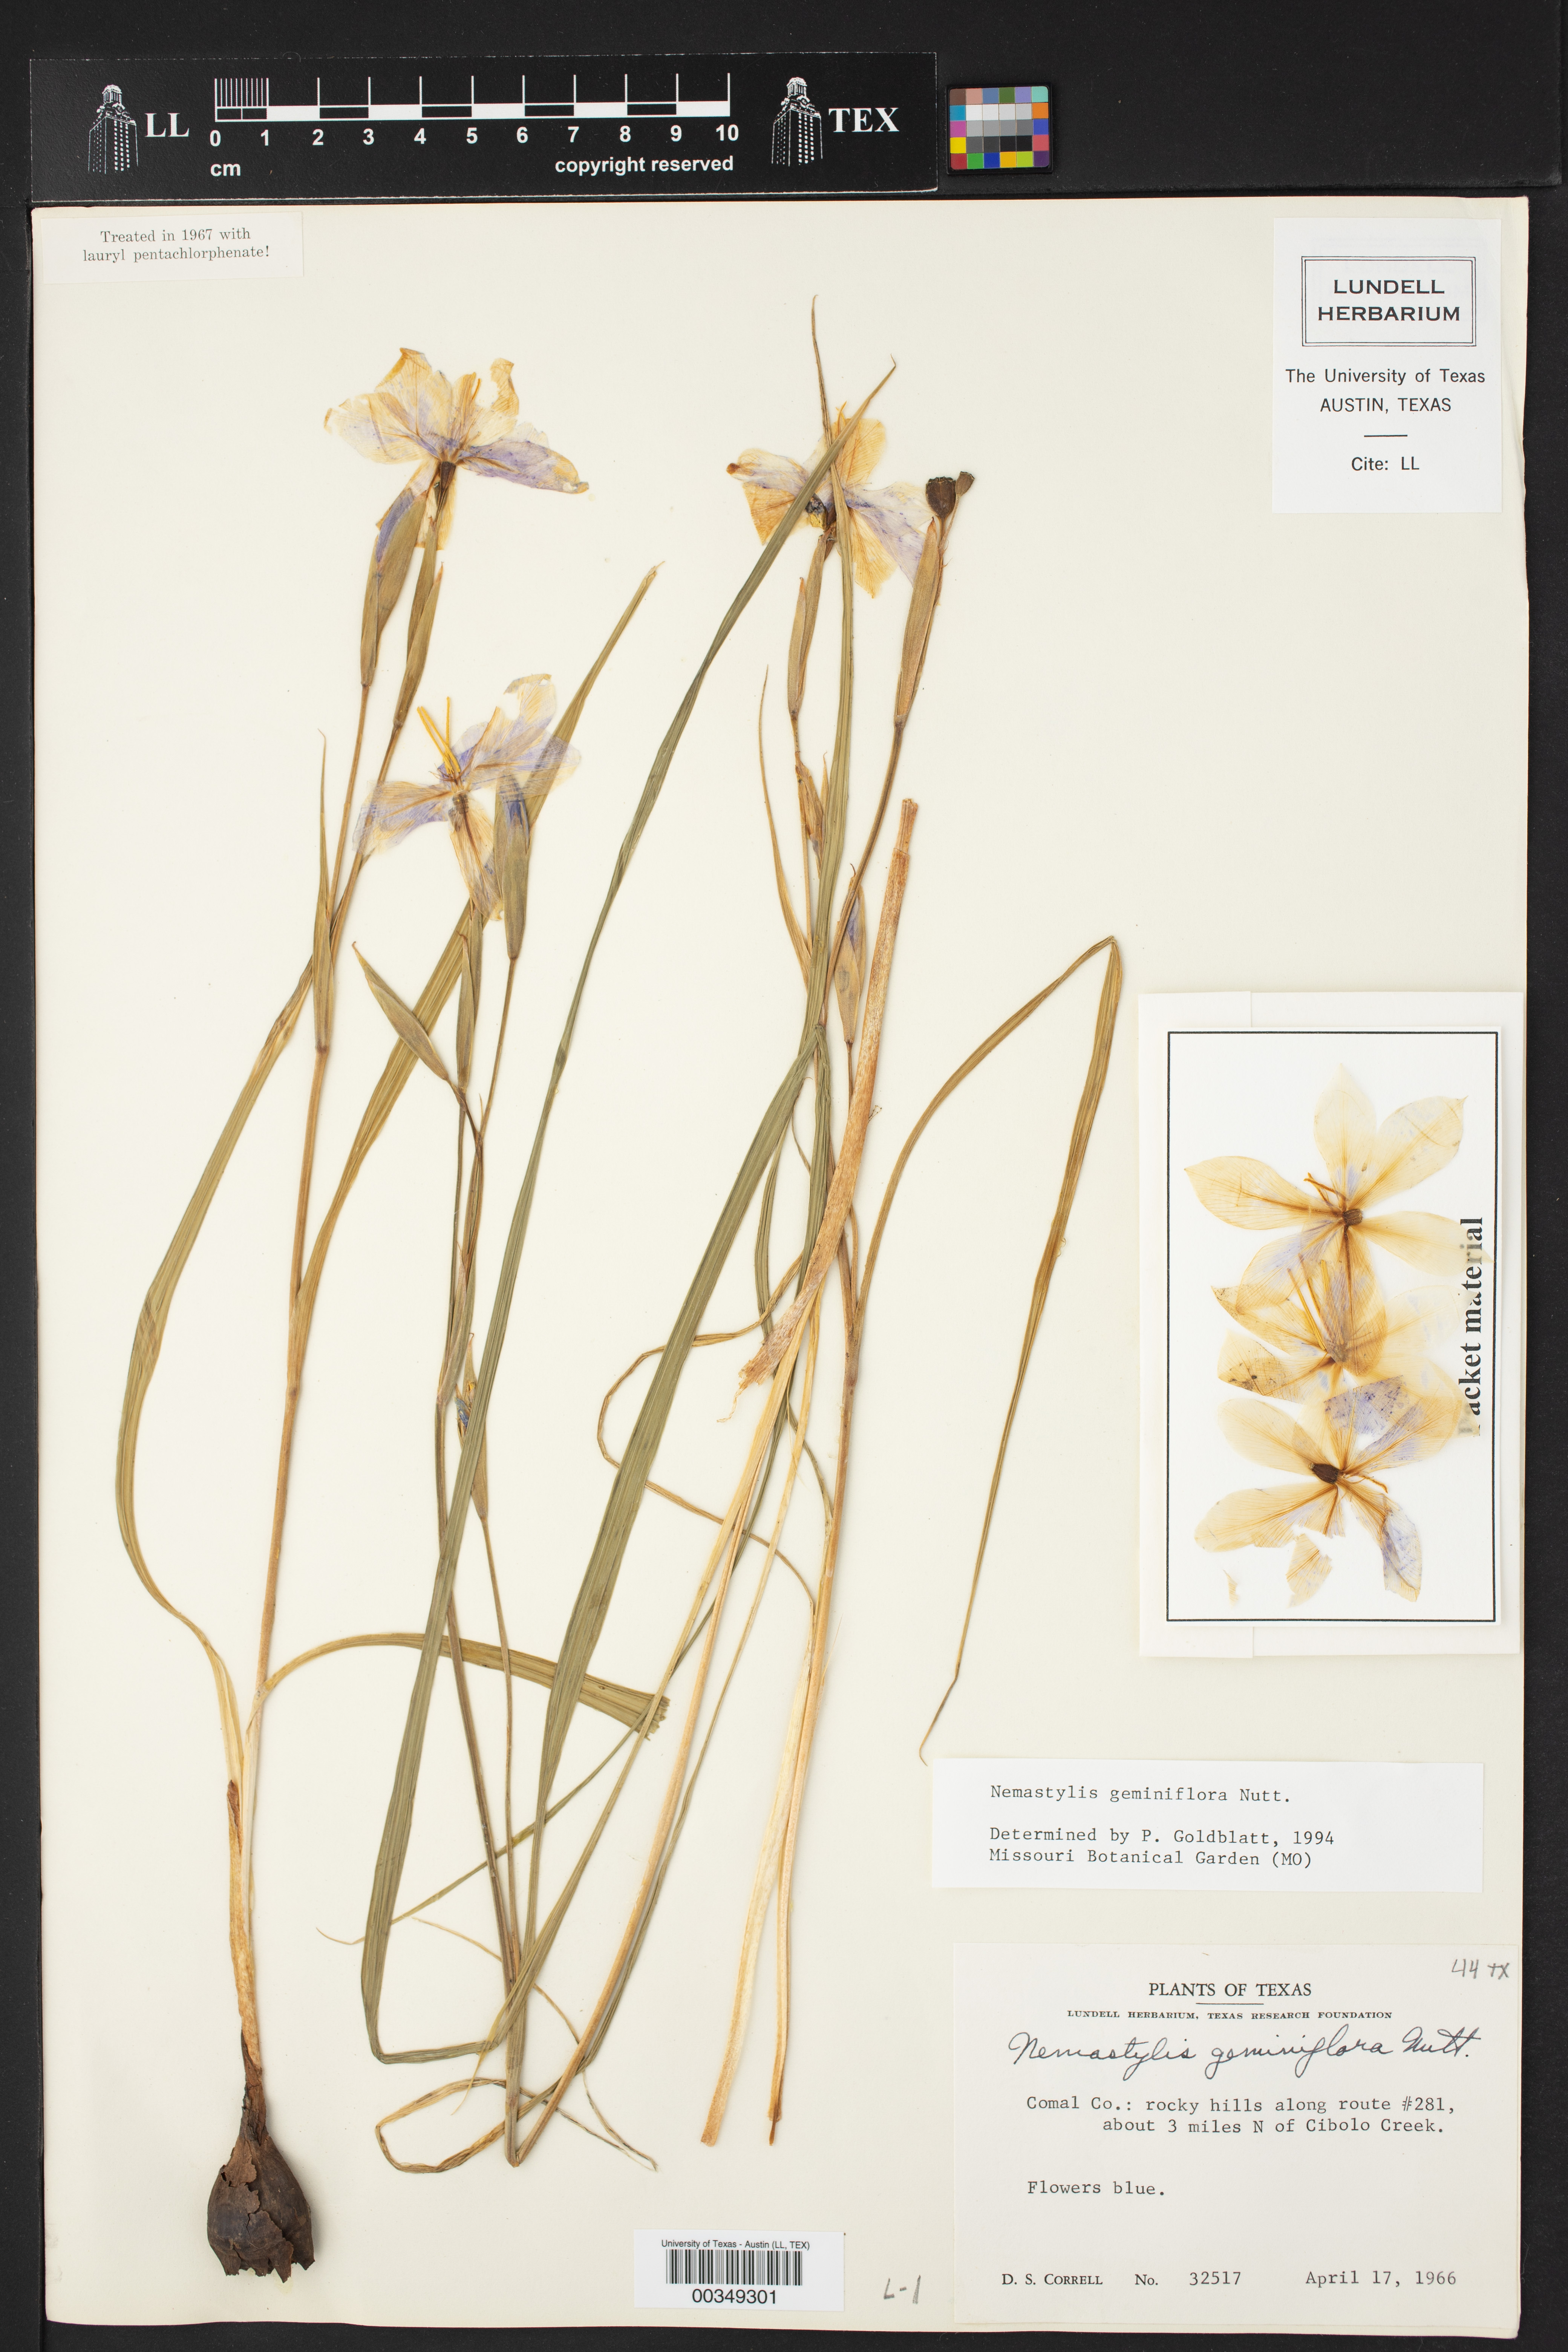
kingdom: Plantae
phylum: Tracheophyta
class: Liliopsida
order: Asparagales
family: Iridaceae
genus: Nemastylis
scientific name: Nemastylis selidandra
